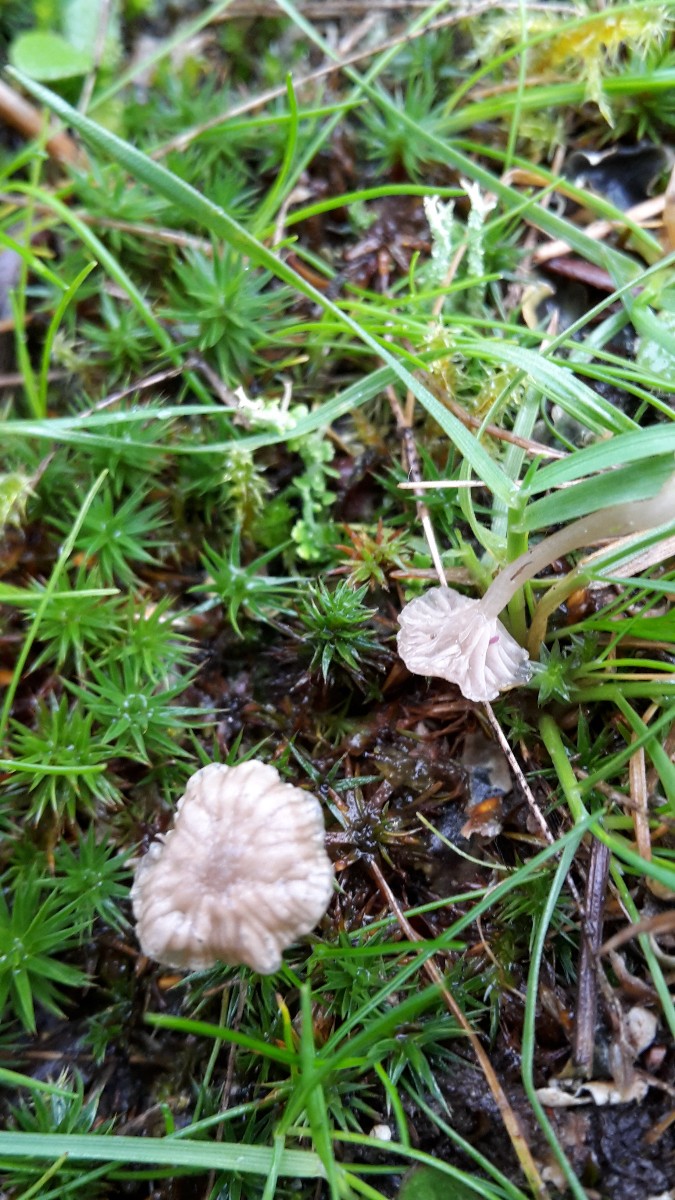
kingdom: Fungi
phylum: Basidiomycota
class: Agaricomycetes
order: Agaricales
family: Hygrophoraceae
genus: Arrhenia
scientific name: Arrhenia peltigerina
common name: skjoldlav-fontænehat
